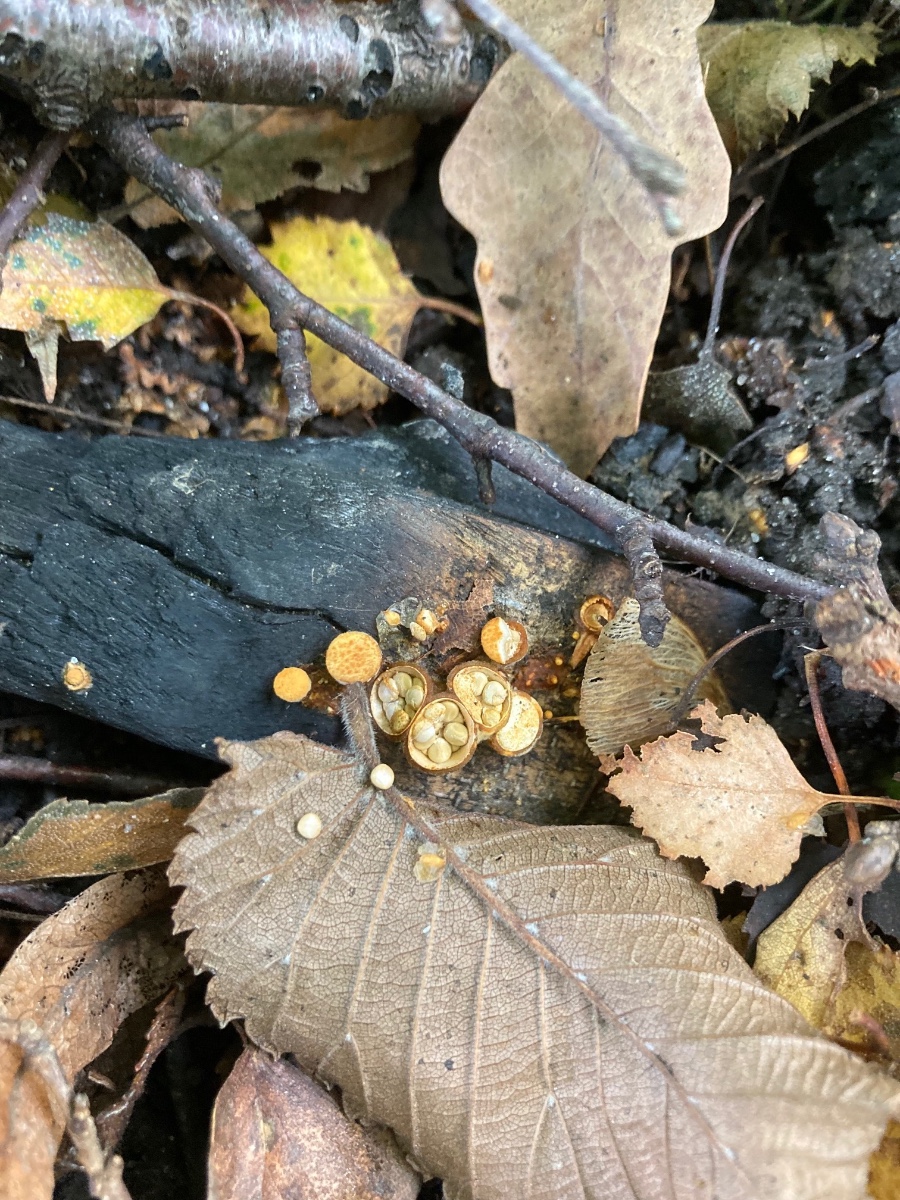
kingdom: Fungi
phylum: Basidiomycota
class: Agaricomycetes
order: Agaricales
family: Nidulariaceae
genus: Crucibulum
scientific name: Crucibulum crucibuliforme
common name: krukkesvamp
